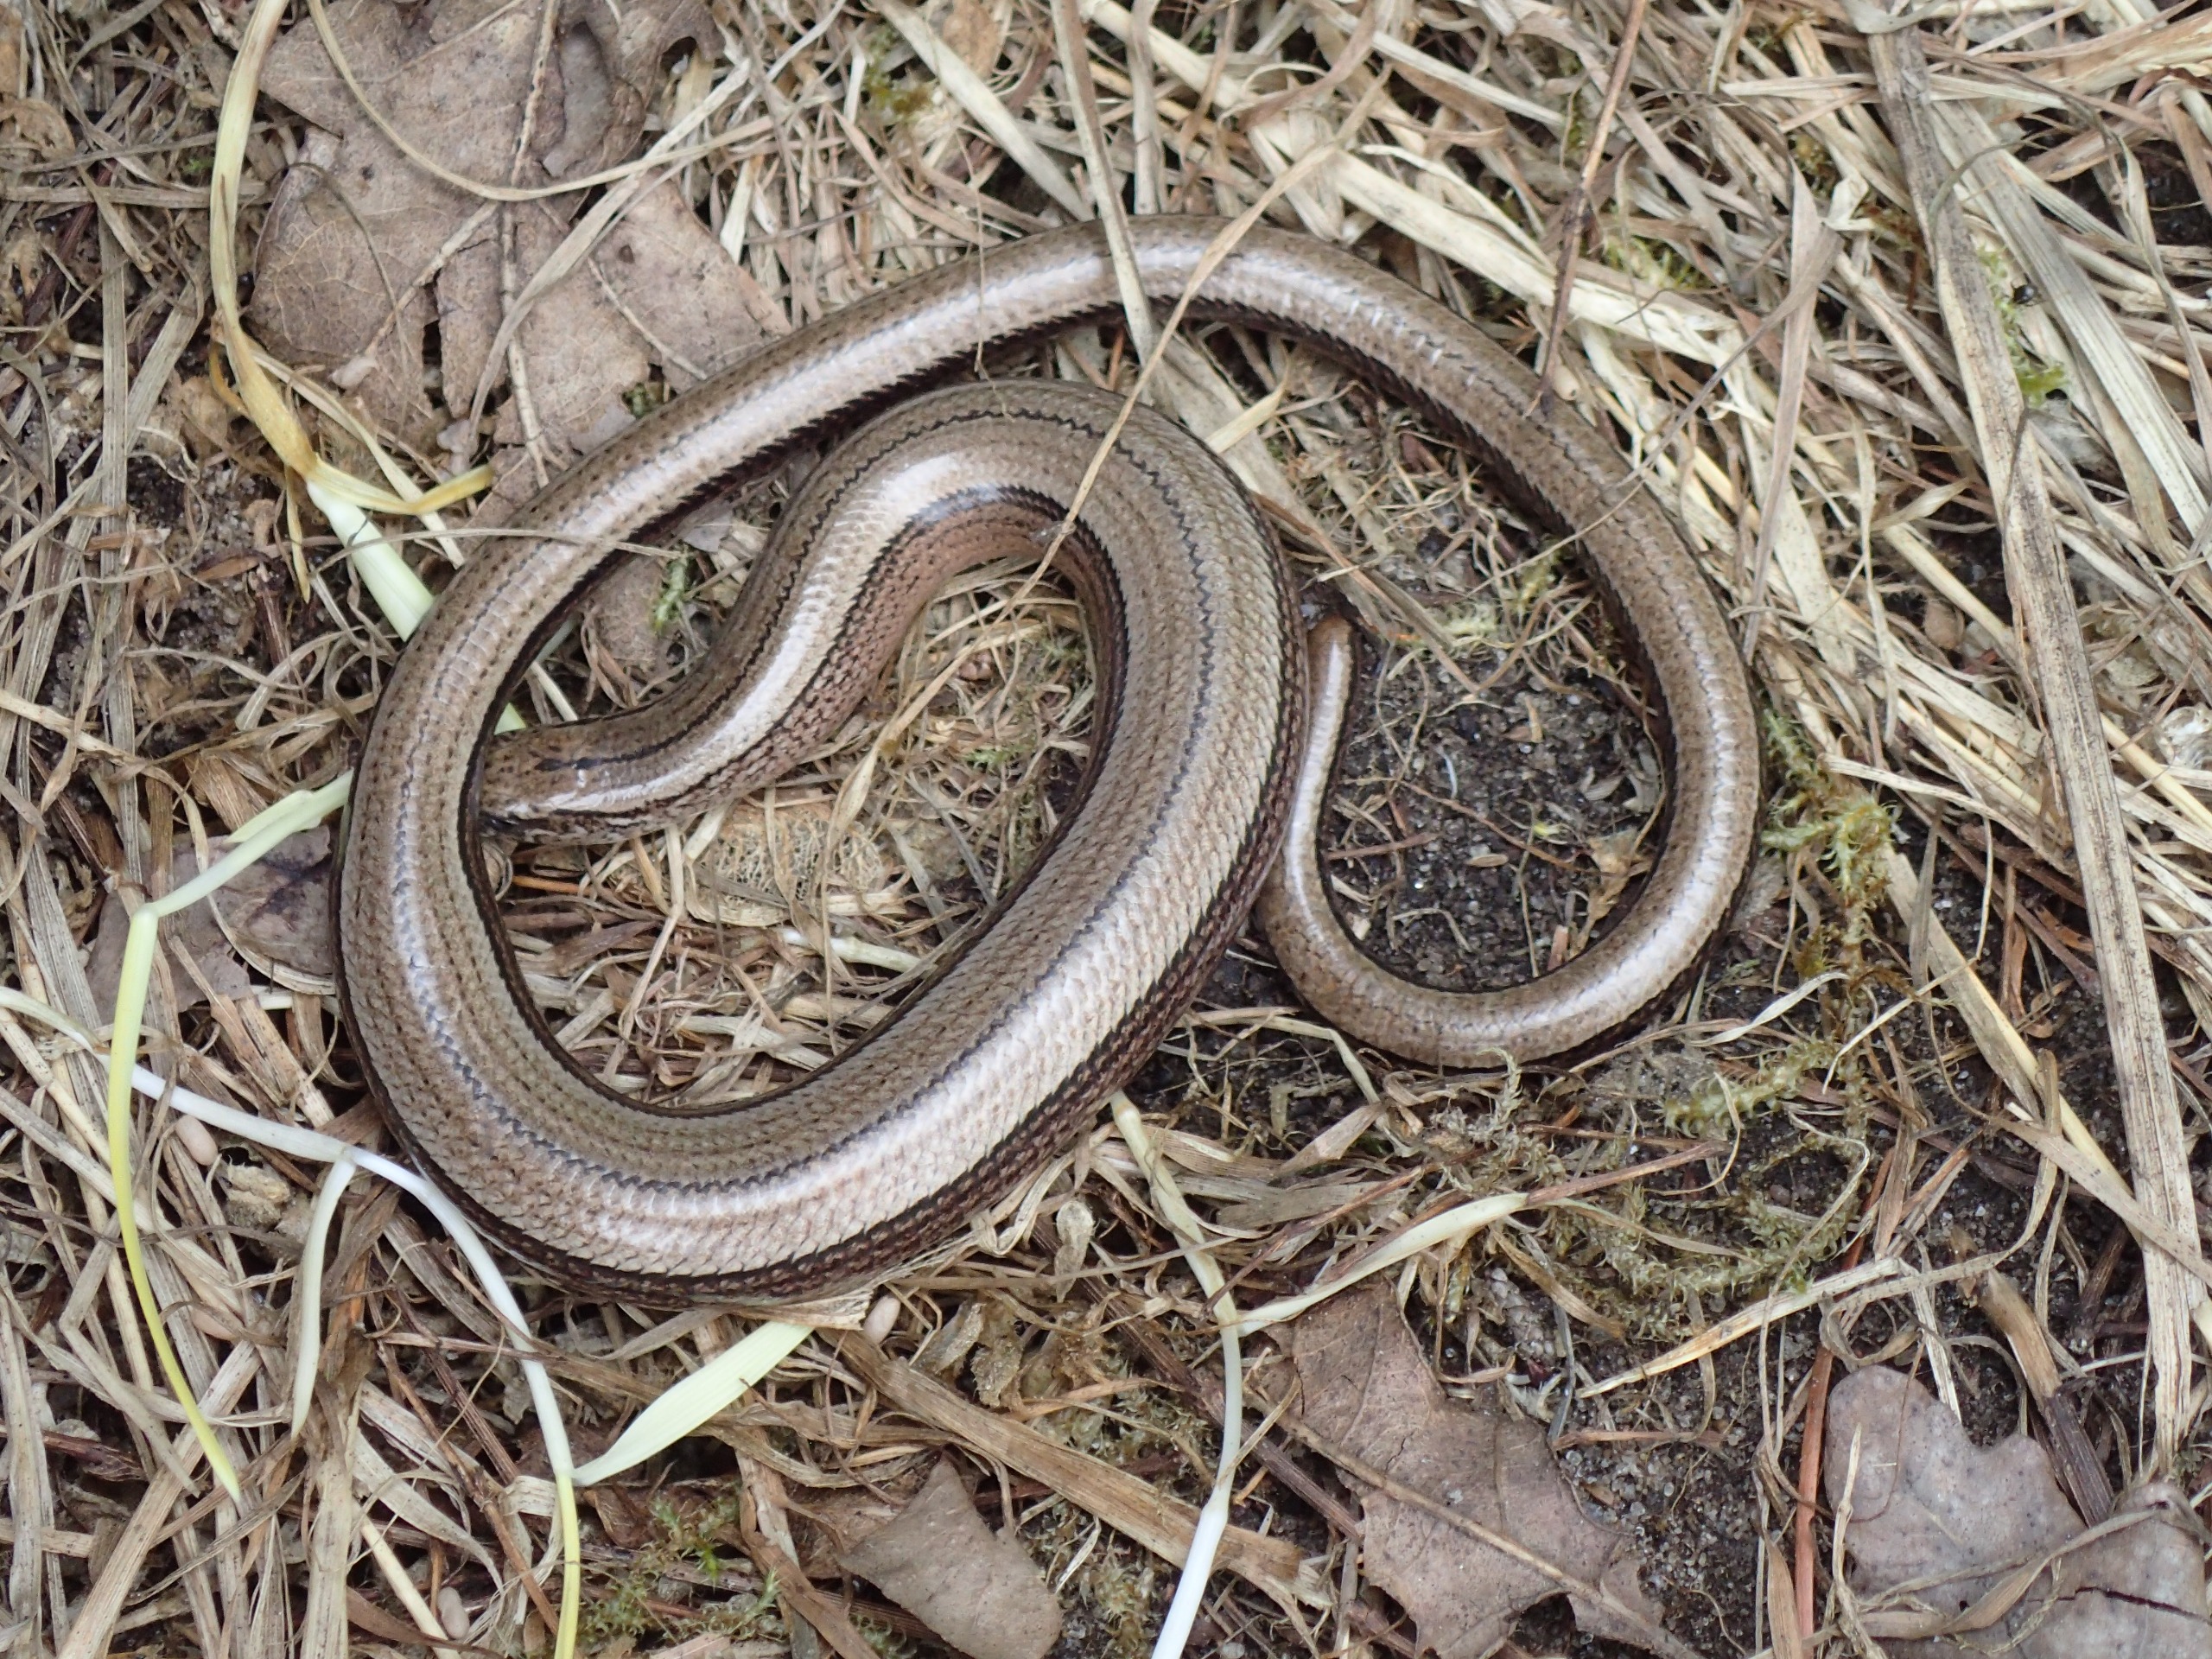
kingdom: Animalia
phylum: Chordata
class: Squamata
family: Anguidae
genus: Anguis
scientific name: Anguis fragilis
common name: Stålorm
